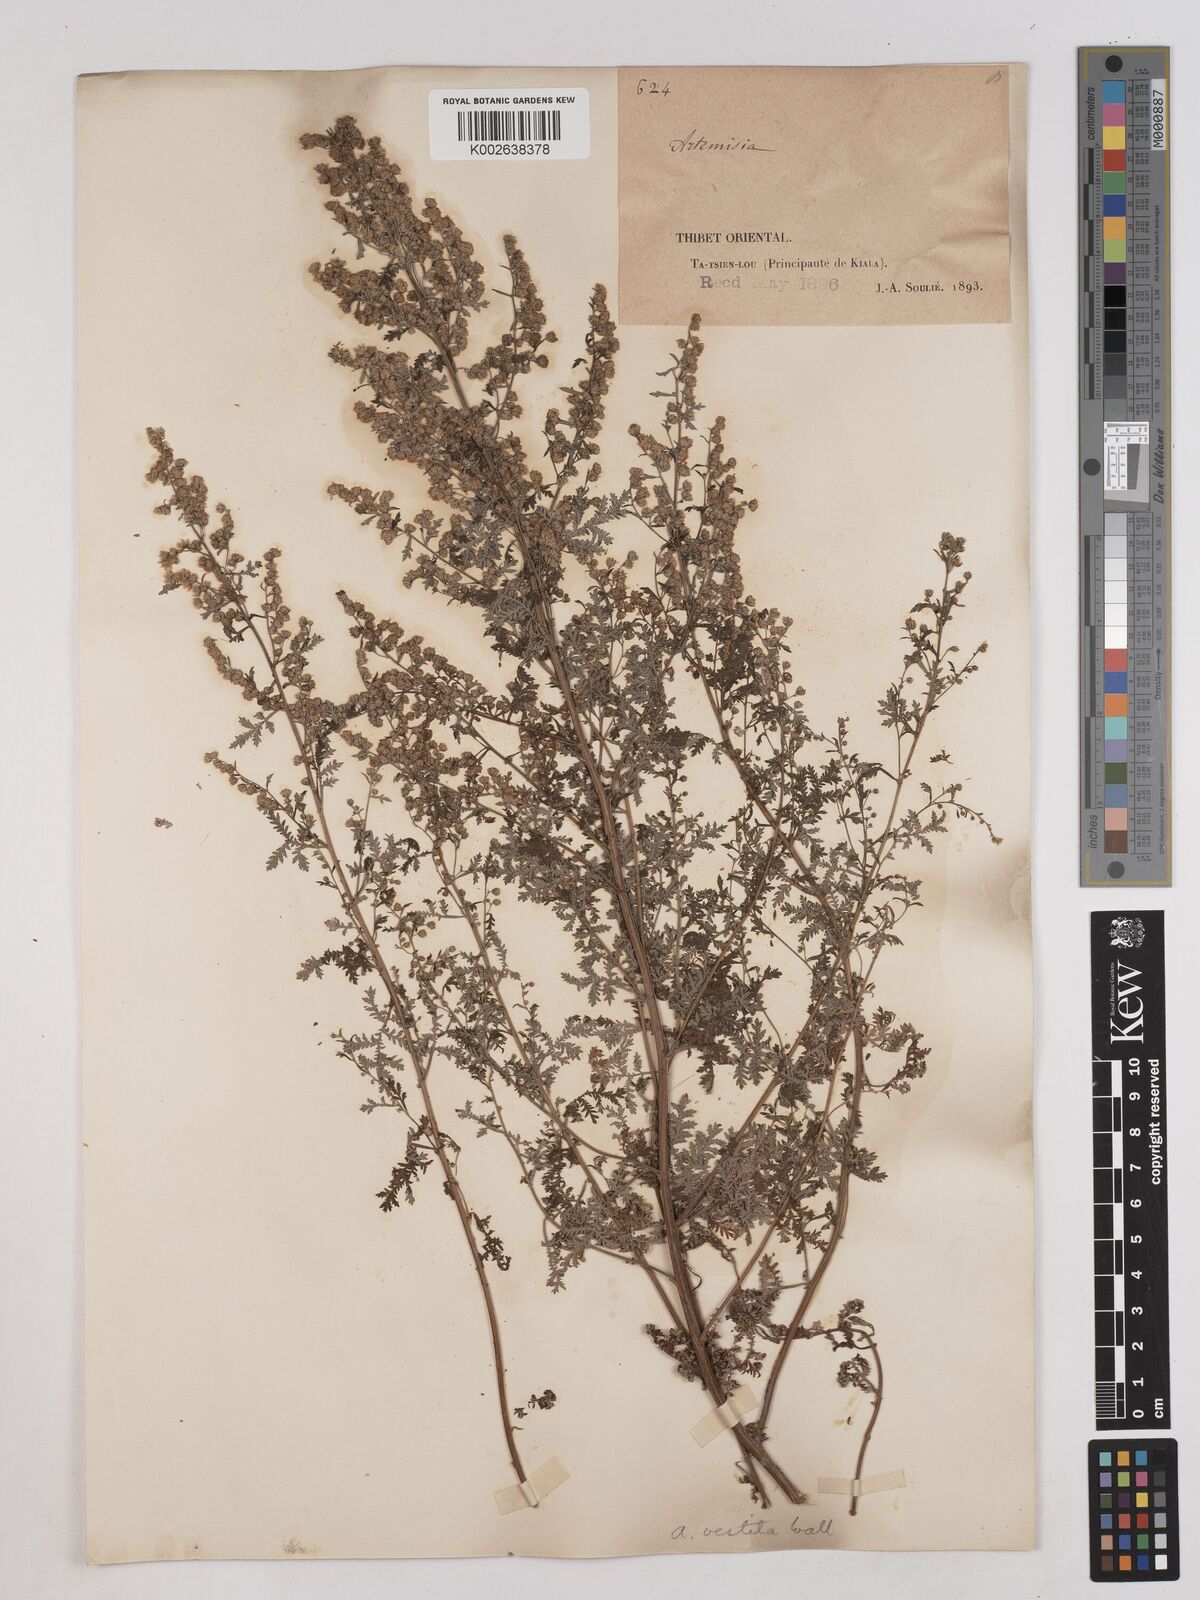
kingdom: Plantae
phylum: Tracheophyta
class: Magnoliopsida
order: Asterales
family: Asteraceae
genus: Artemisia
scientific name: Artemisia gmelinii
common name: Gmelin's wormwood
